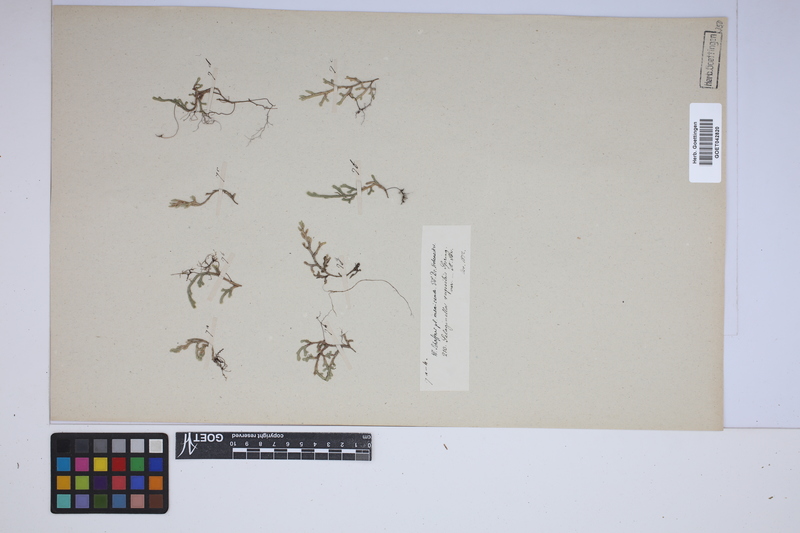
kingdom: Plantae
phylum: Tracheophyta
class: Lycopodiopsida
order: Selaginellales
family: Selaginellaceae
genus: Selaginella
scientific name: Selaginella rupestris
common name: Dwarf spikemoss
